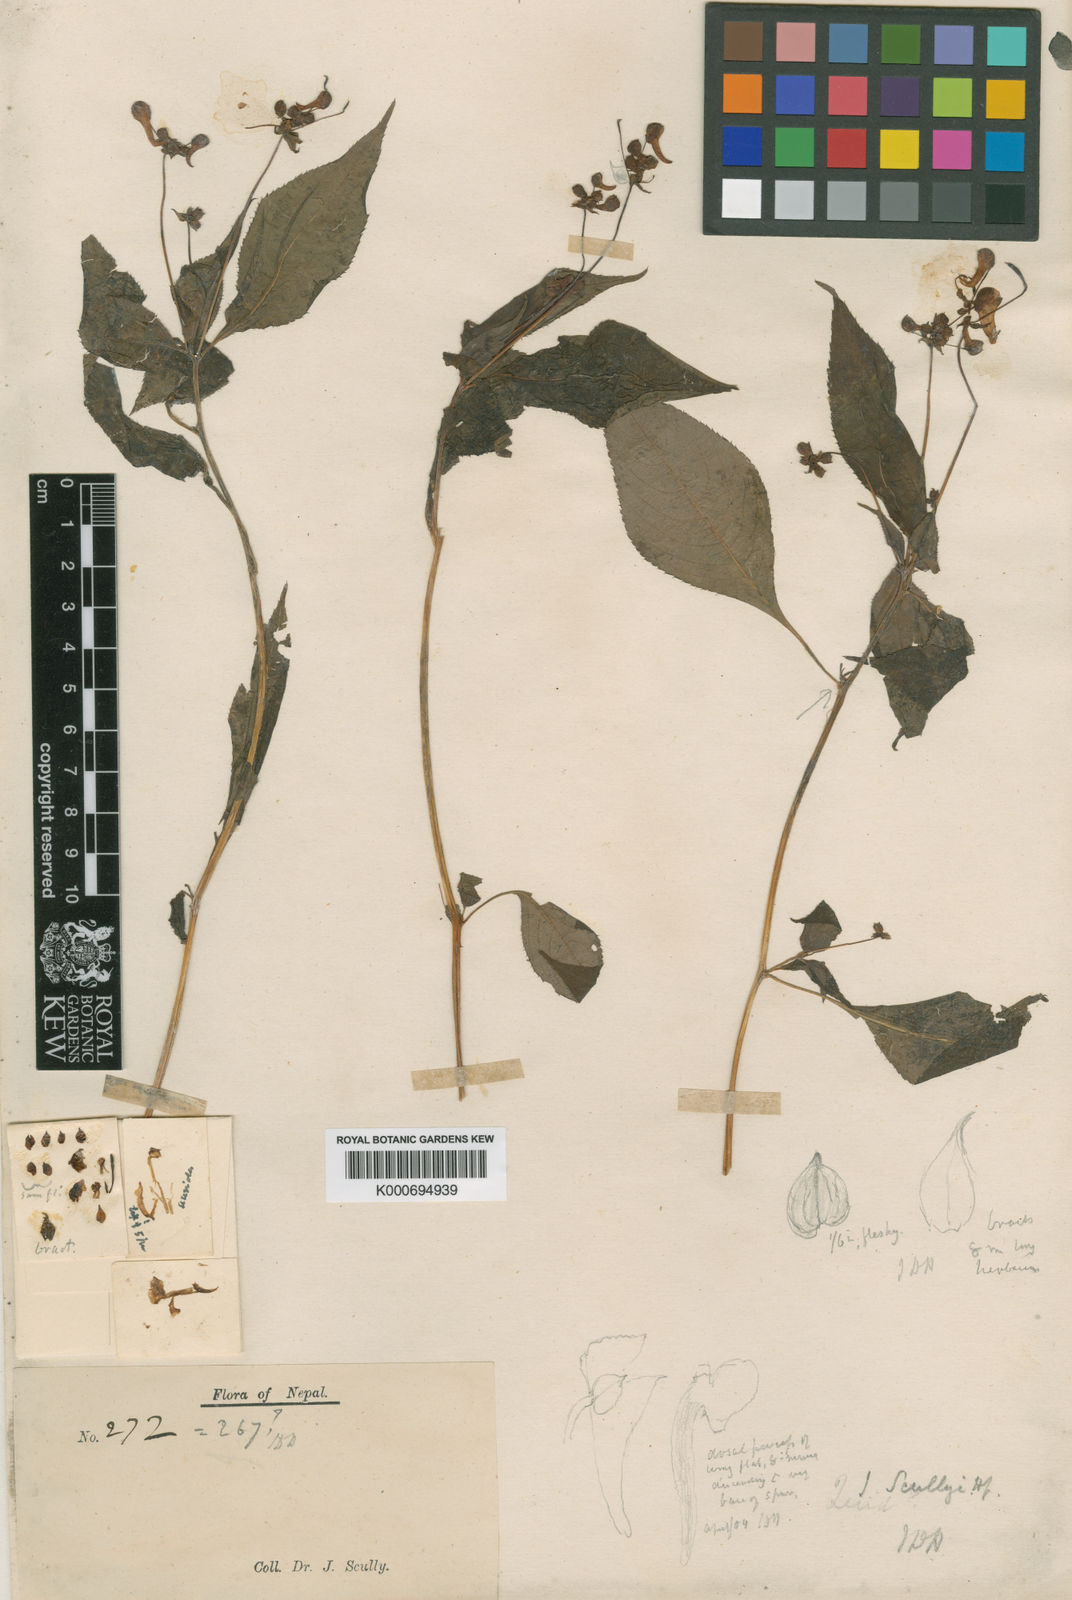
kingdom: Plantae
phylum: Tracheophyta
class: Magnoliopsida
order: Ericales
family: Balsaminaceae
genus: Impatiens
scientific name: Impatiens scullyi
